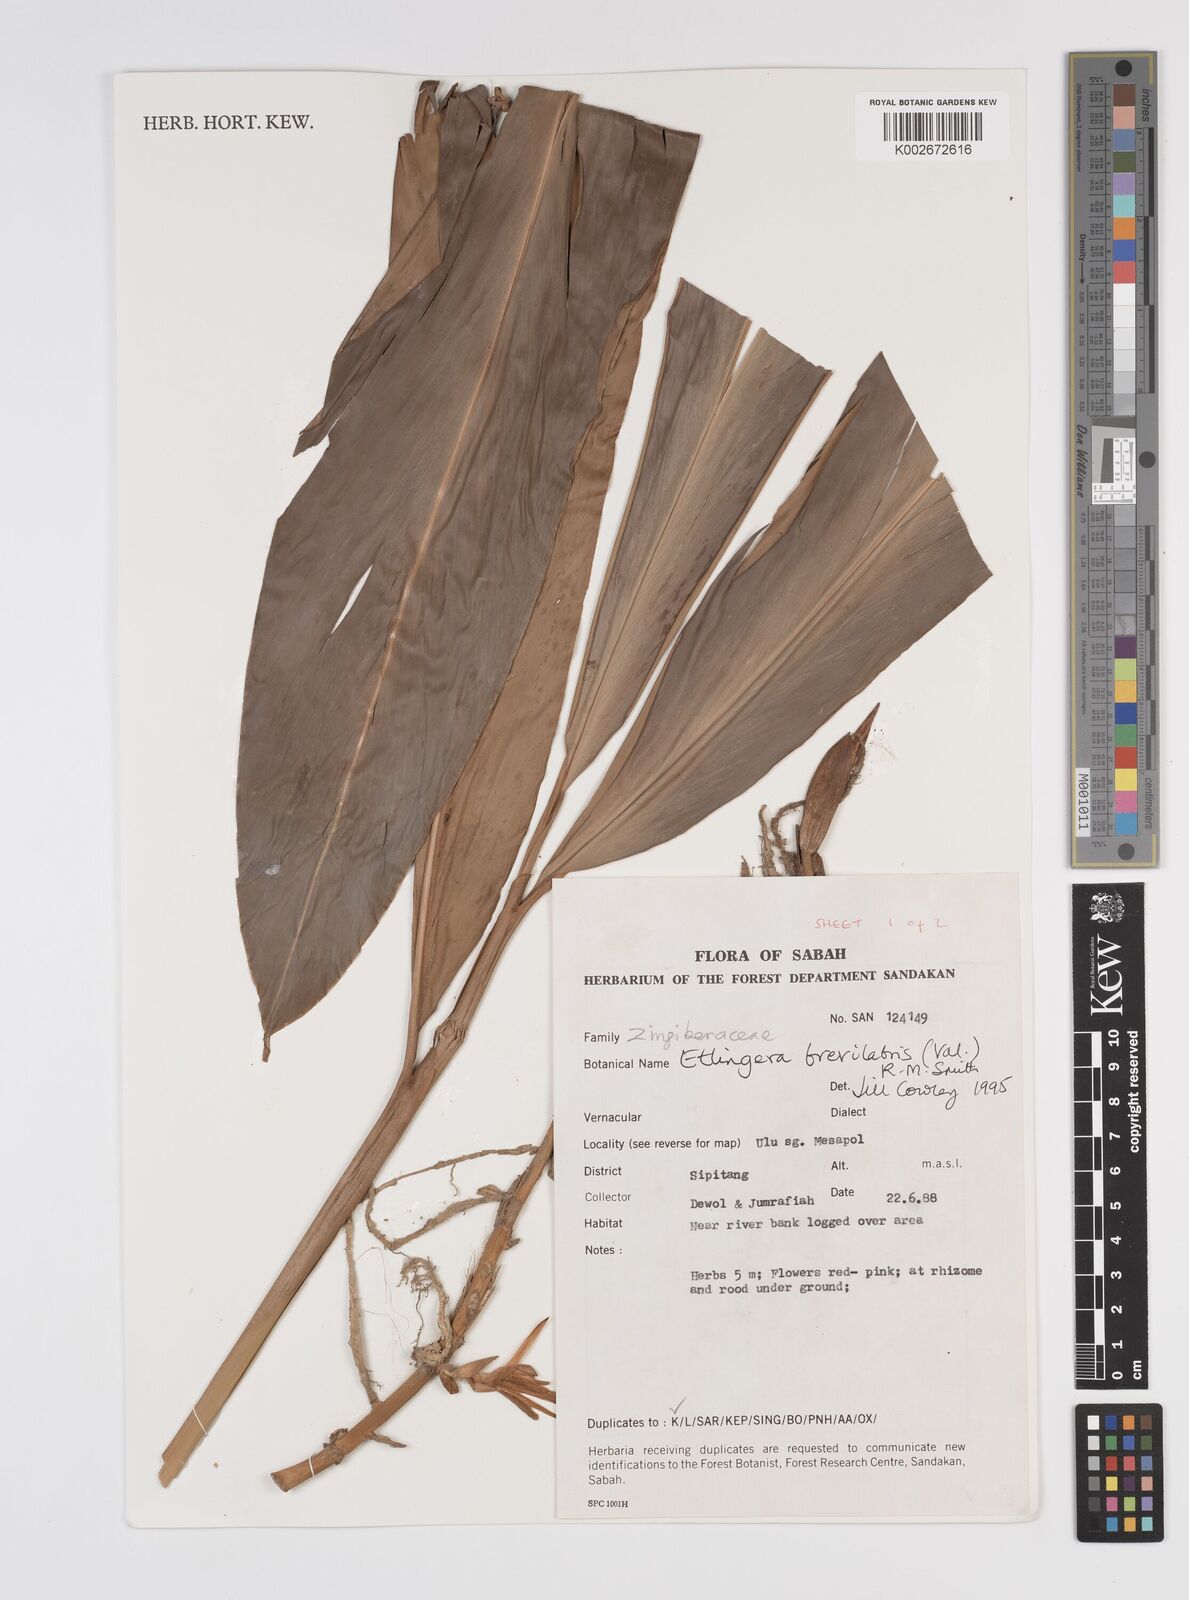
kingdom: Plantae
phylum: Tracheophyta
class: Liliopsida
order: Zingiberales
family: Zingiberaceae
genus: Etlingera
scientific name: Etlingera
